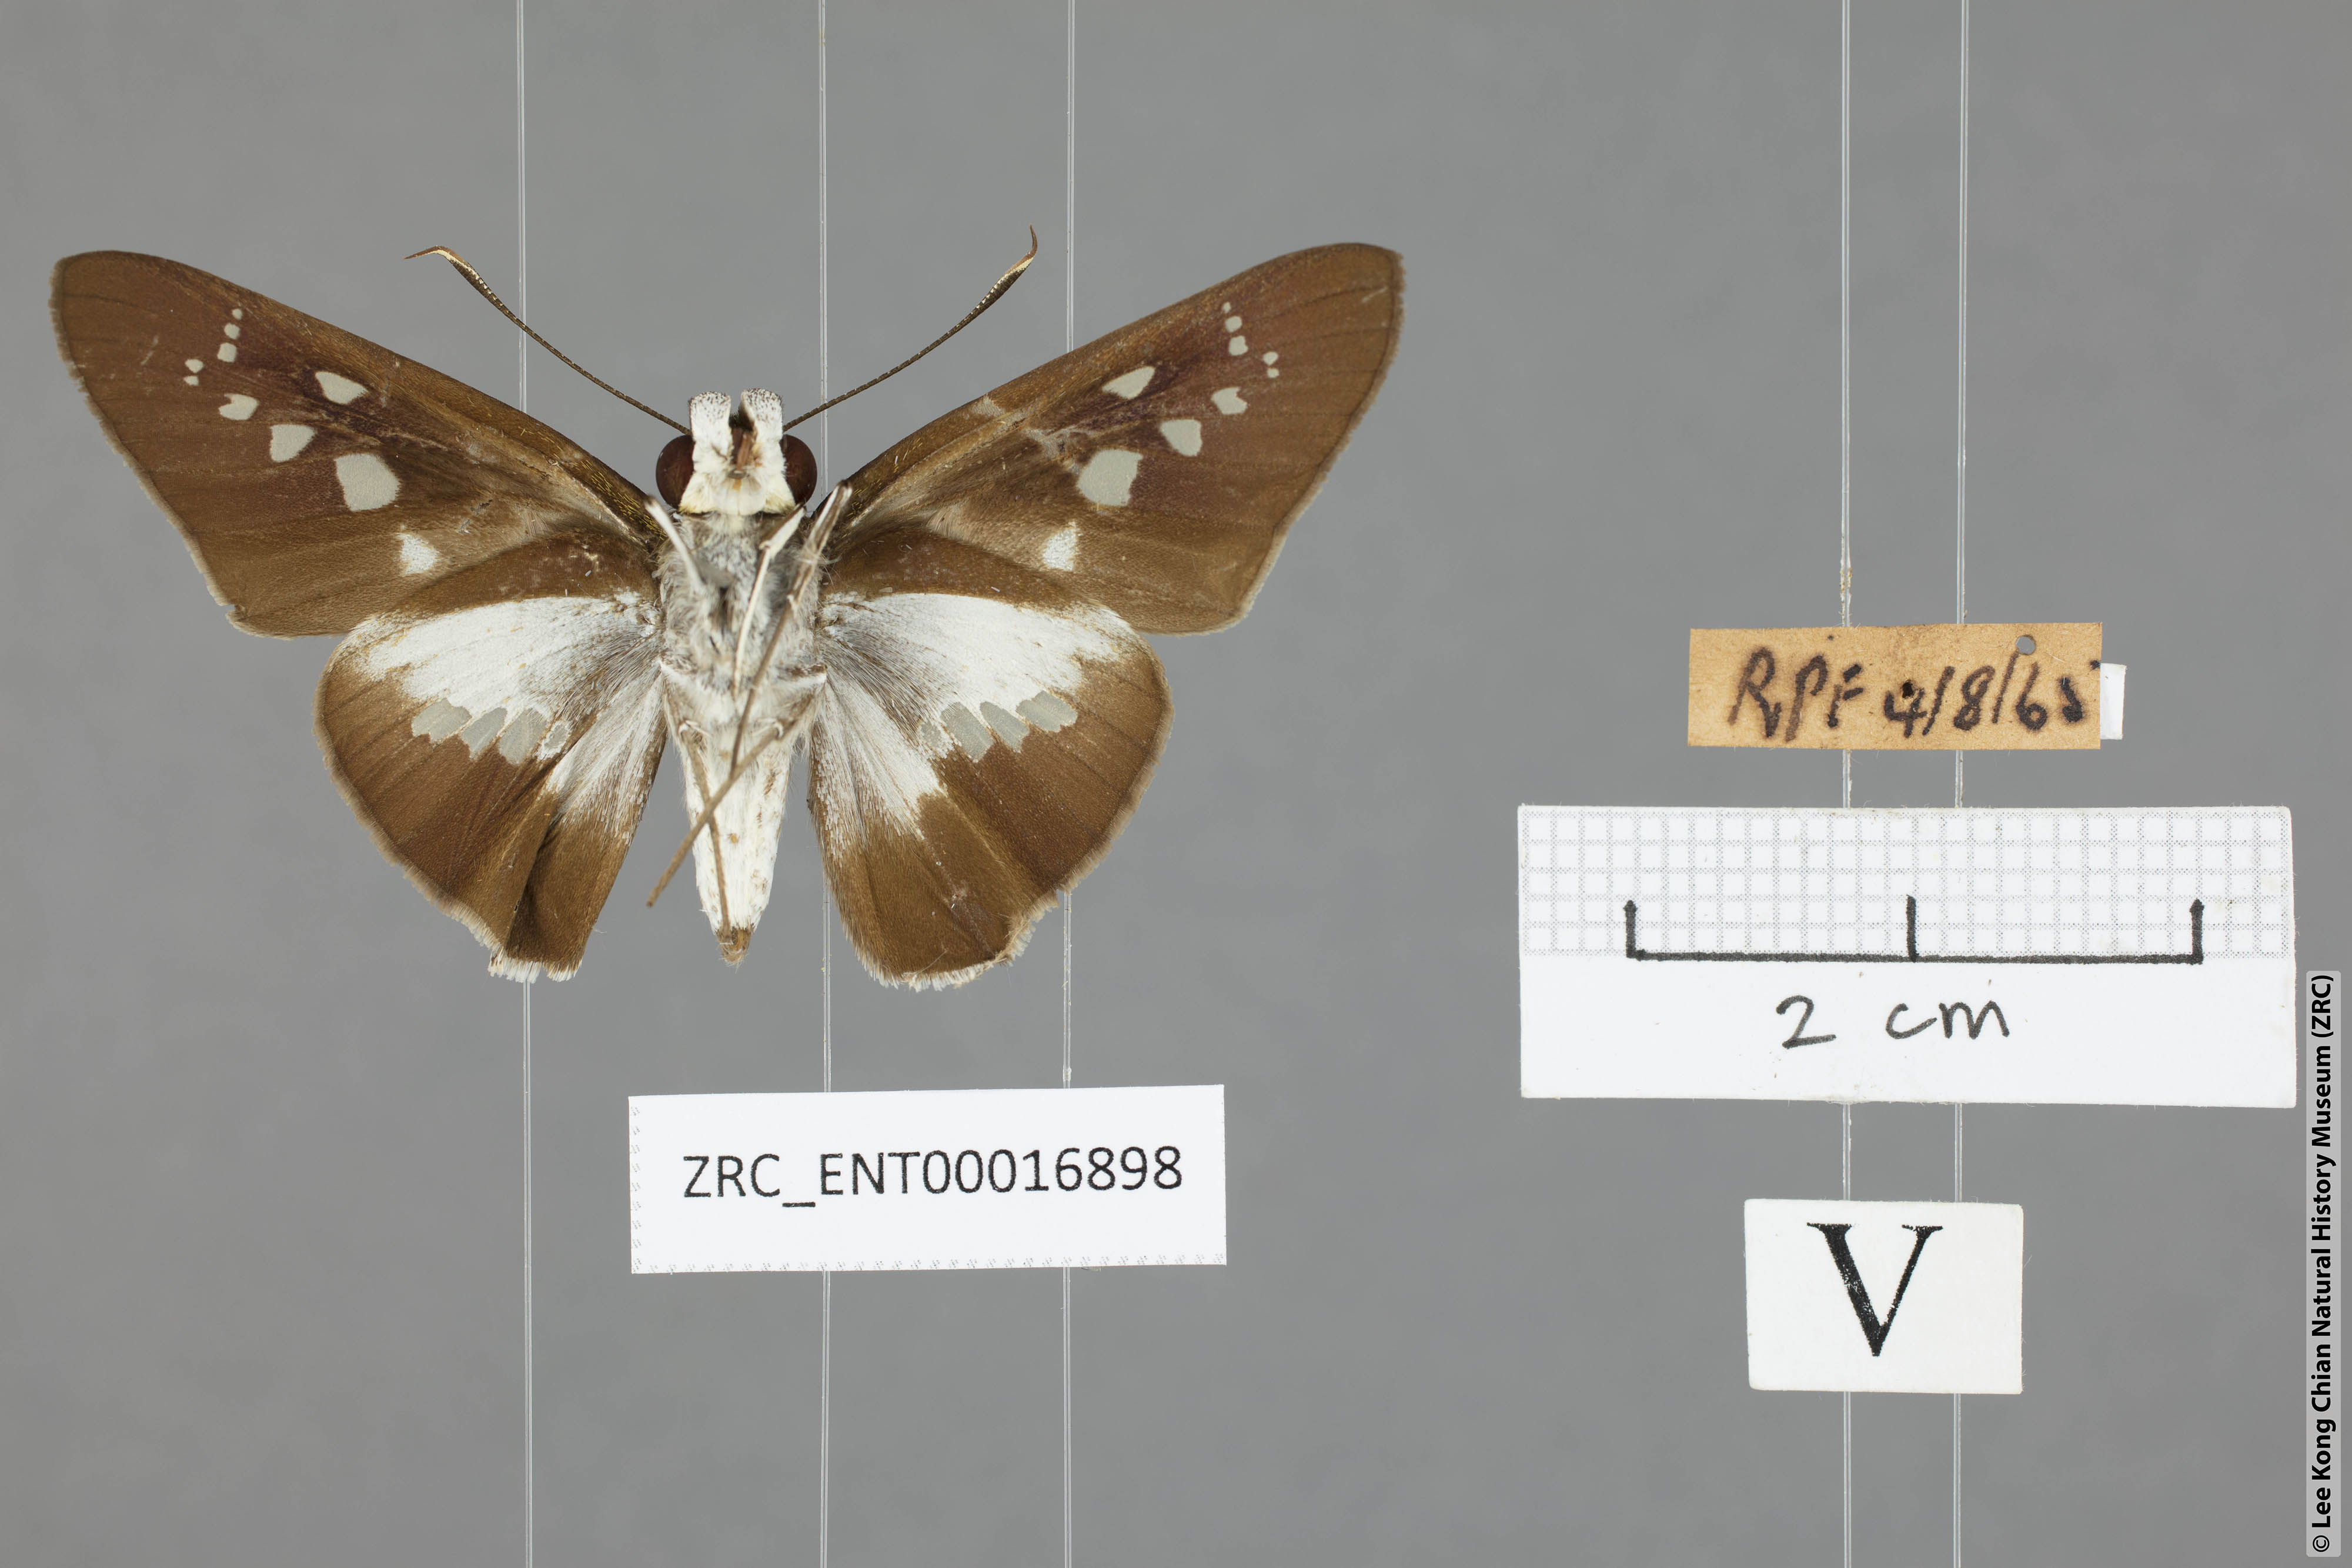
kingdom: Animalia
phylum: Arthropoda
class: Insecta
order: Lepidoptera
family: Hesperiidae
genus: Eetion
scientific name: Eetion elia
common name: White spotted palmer
